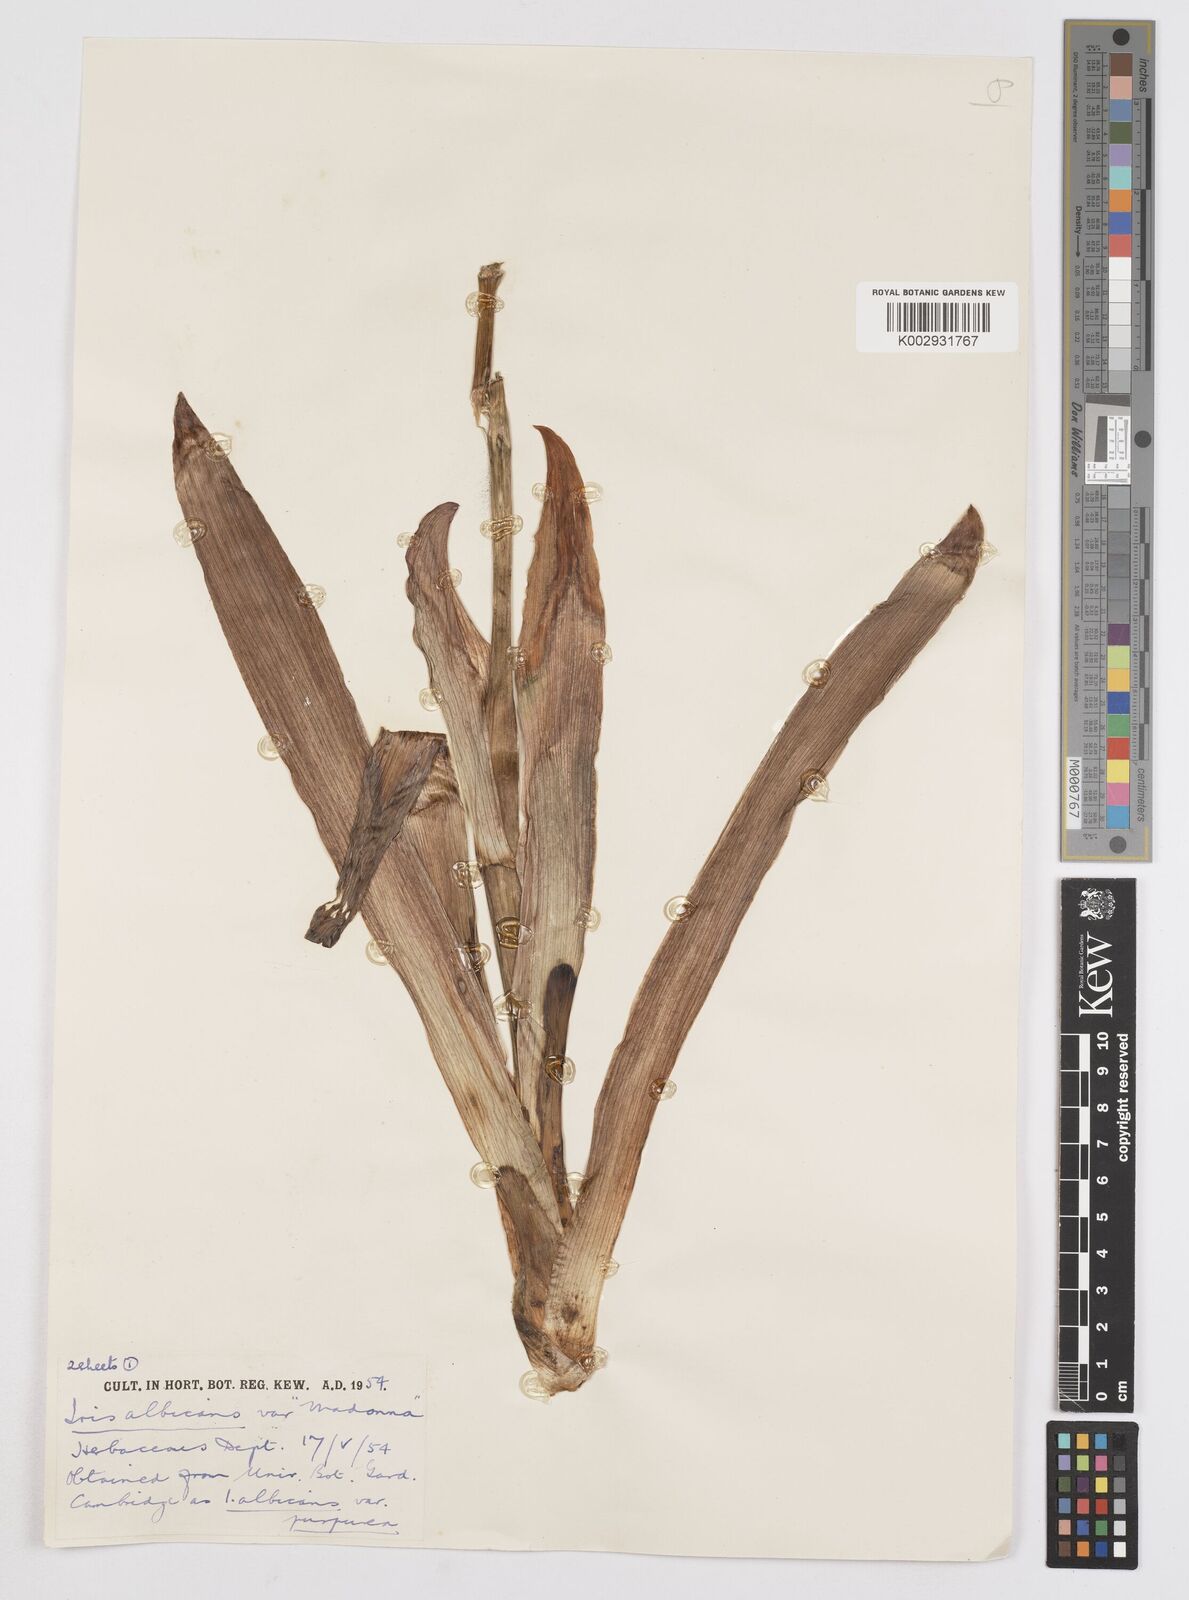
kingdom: Plantae
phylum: Tracheophyta
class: Liliopsida
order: Asparagales
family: Iridaceae
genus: Iris
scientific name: Iris florentina
